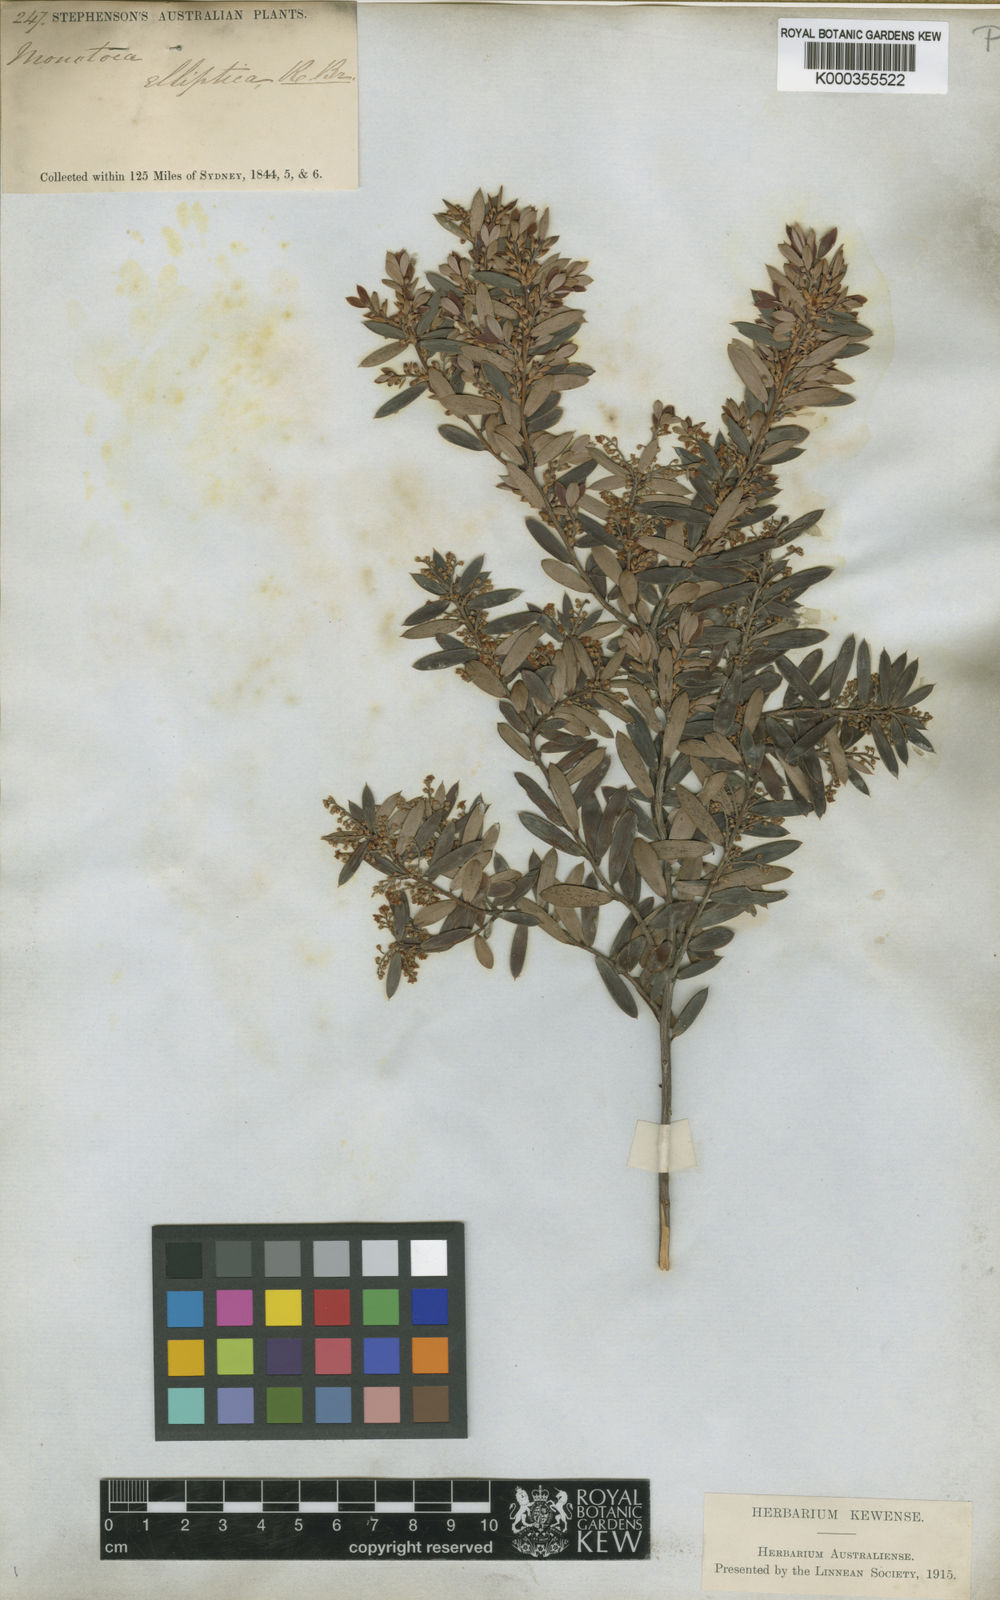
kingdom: Plantae
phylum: Tracheophyta
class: Magnoliopsida
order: Ericales
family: Ericaceae
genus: Monotoca
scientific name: Monotoca elliptica
